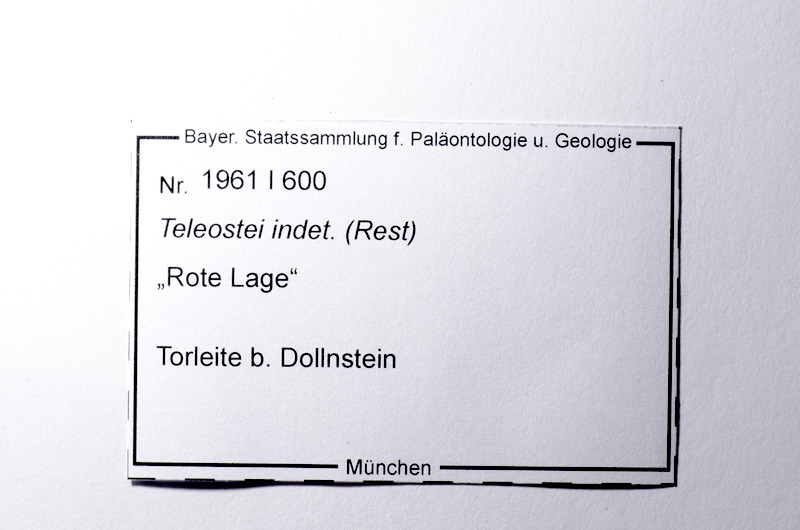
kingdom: Animalia
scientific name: Animalia
